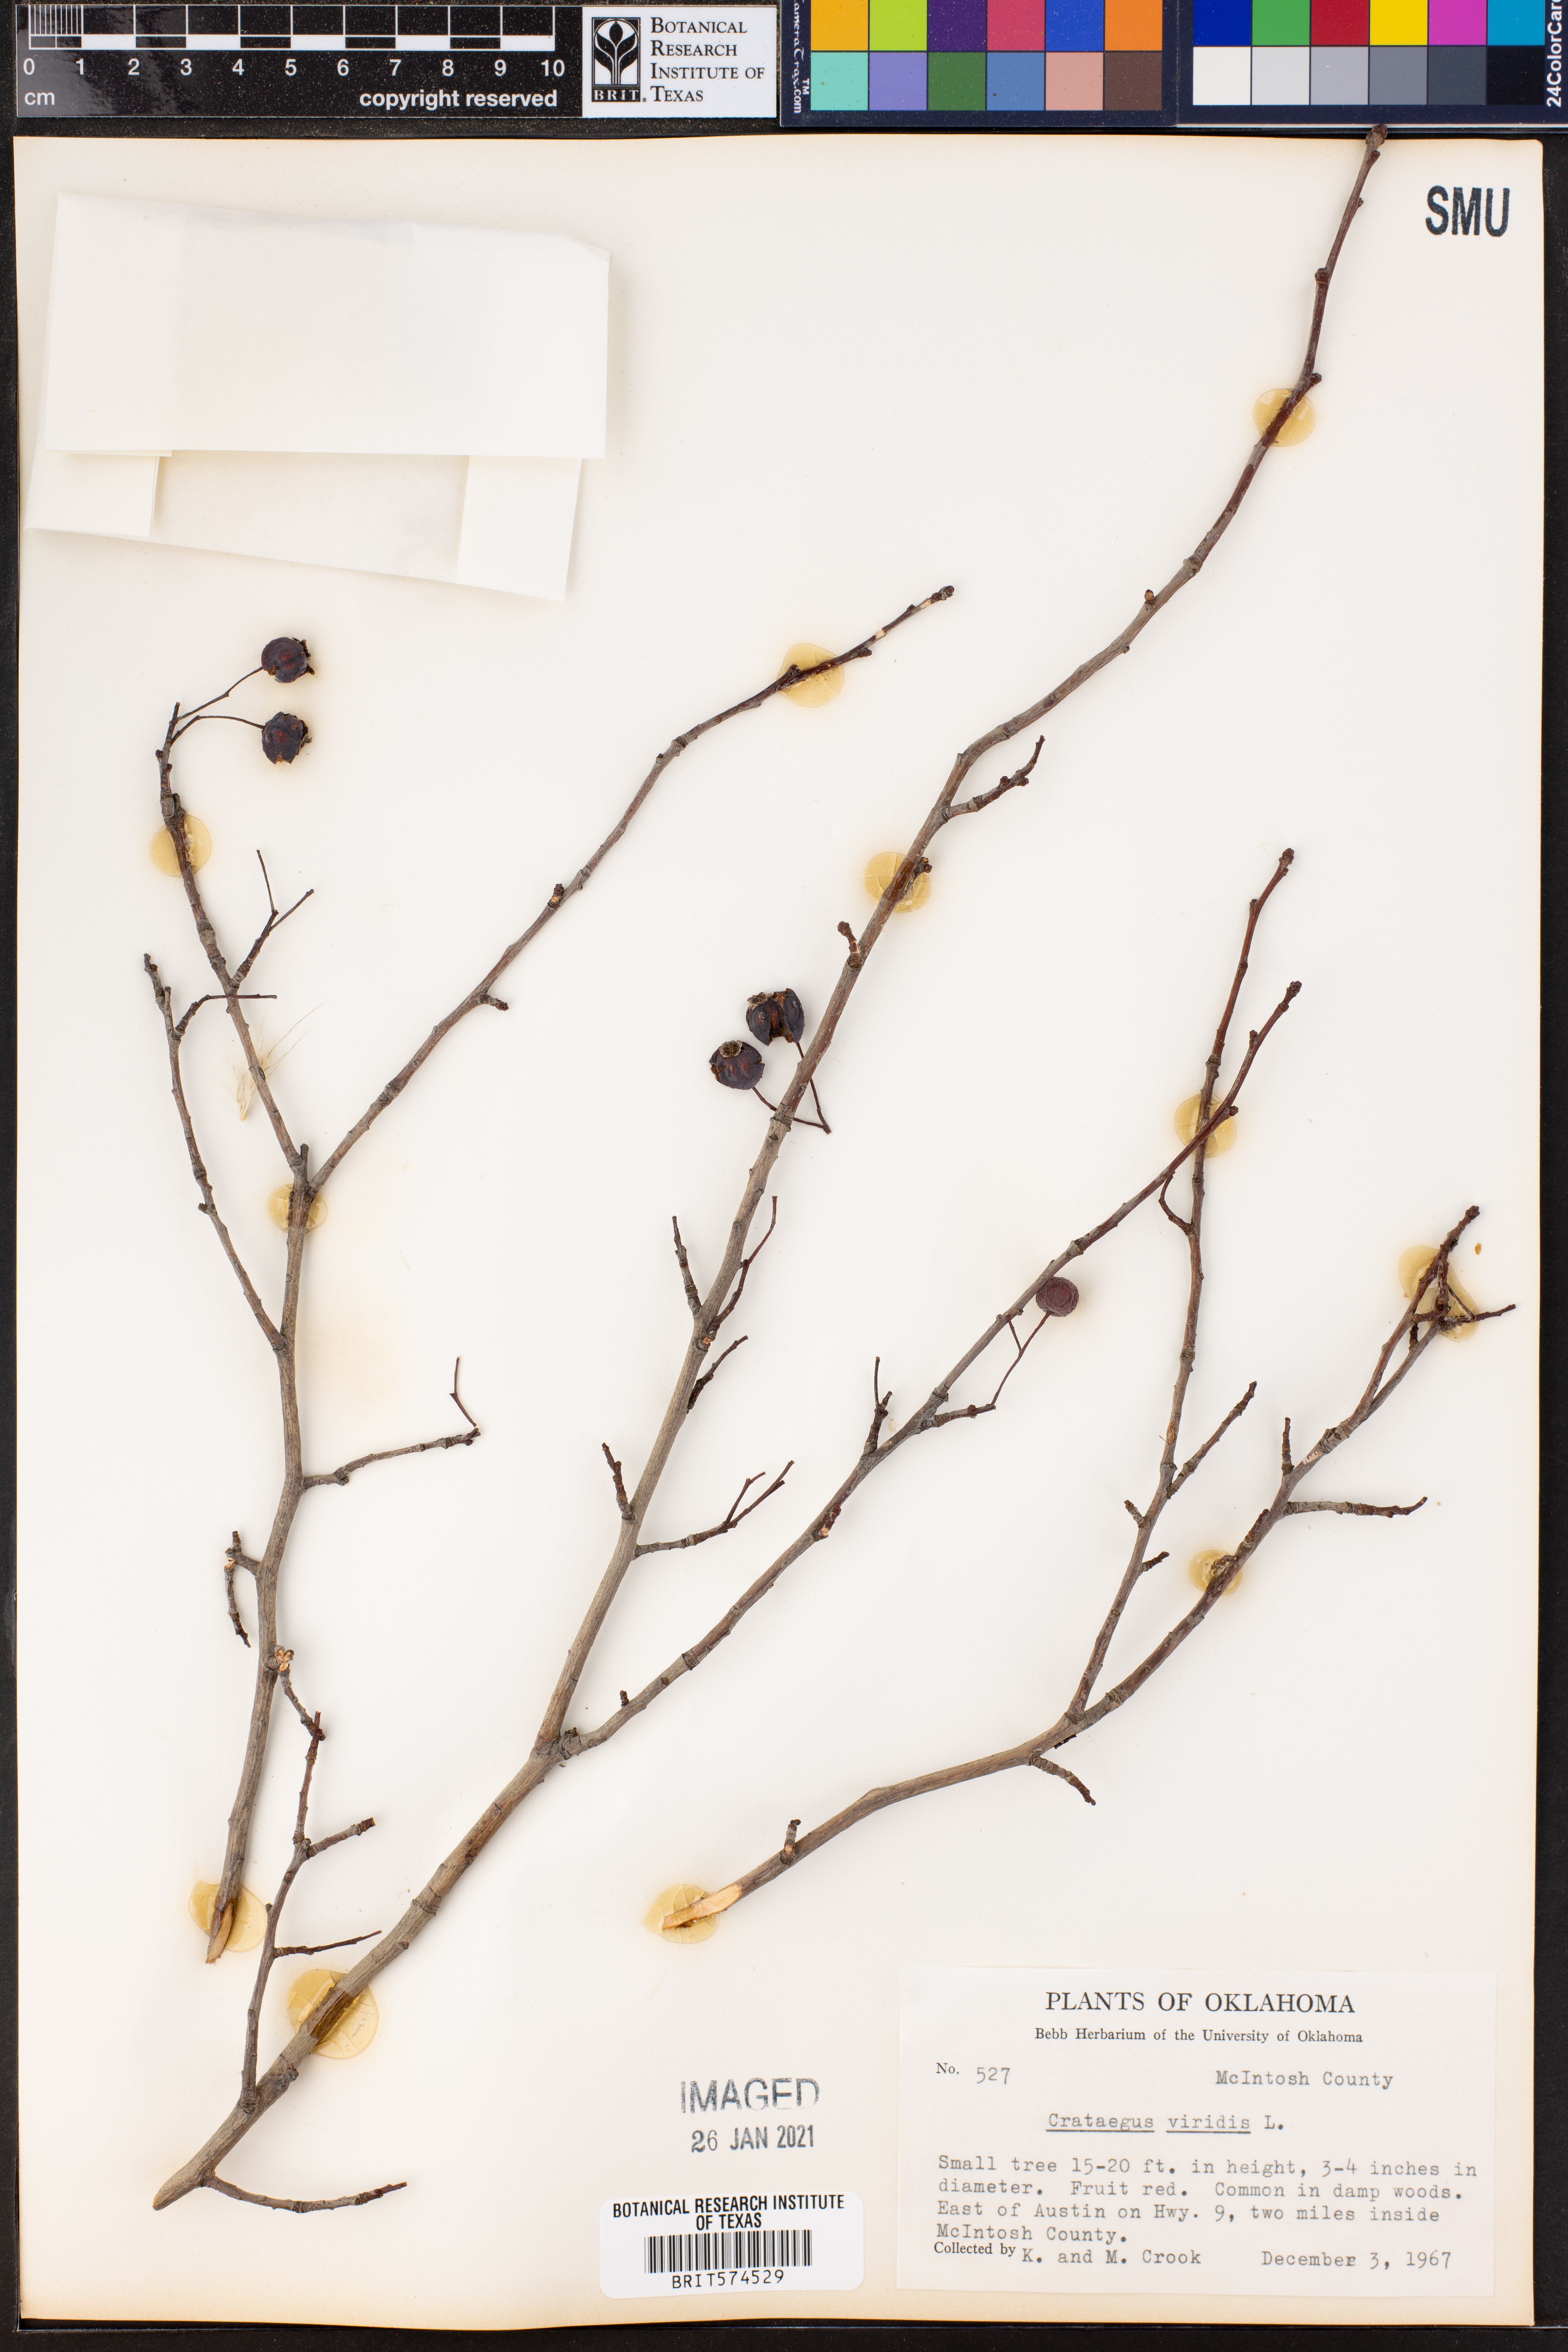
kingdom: Plantae
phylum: Tracheophyta
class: Magnoliopsida
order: Rosales
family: Rosaceae
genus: Crataegus
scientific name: Crataegus viridis
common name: Southernthorn
